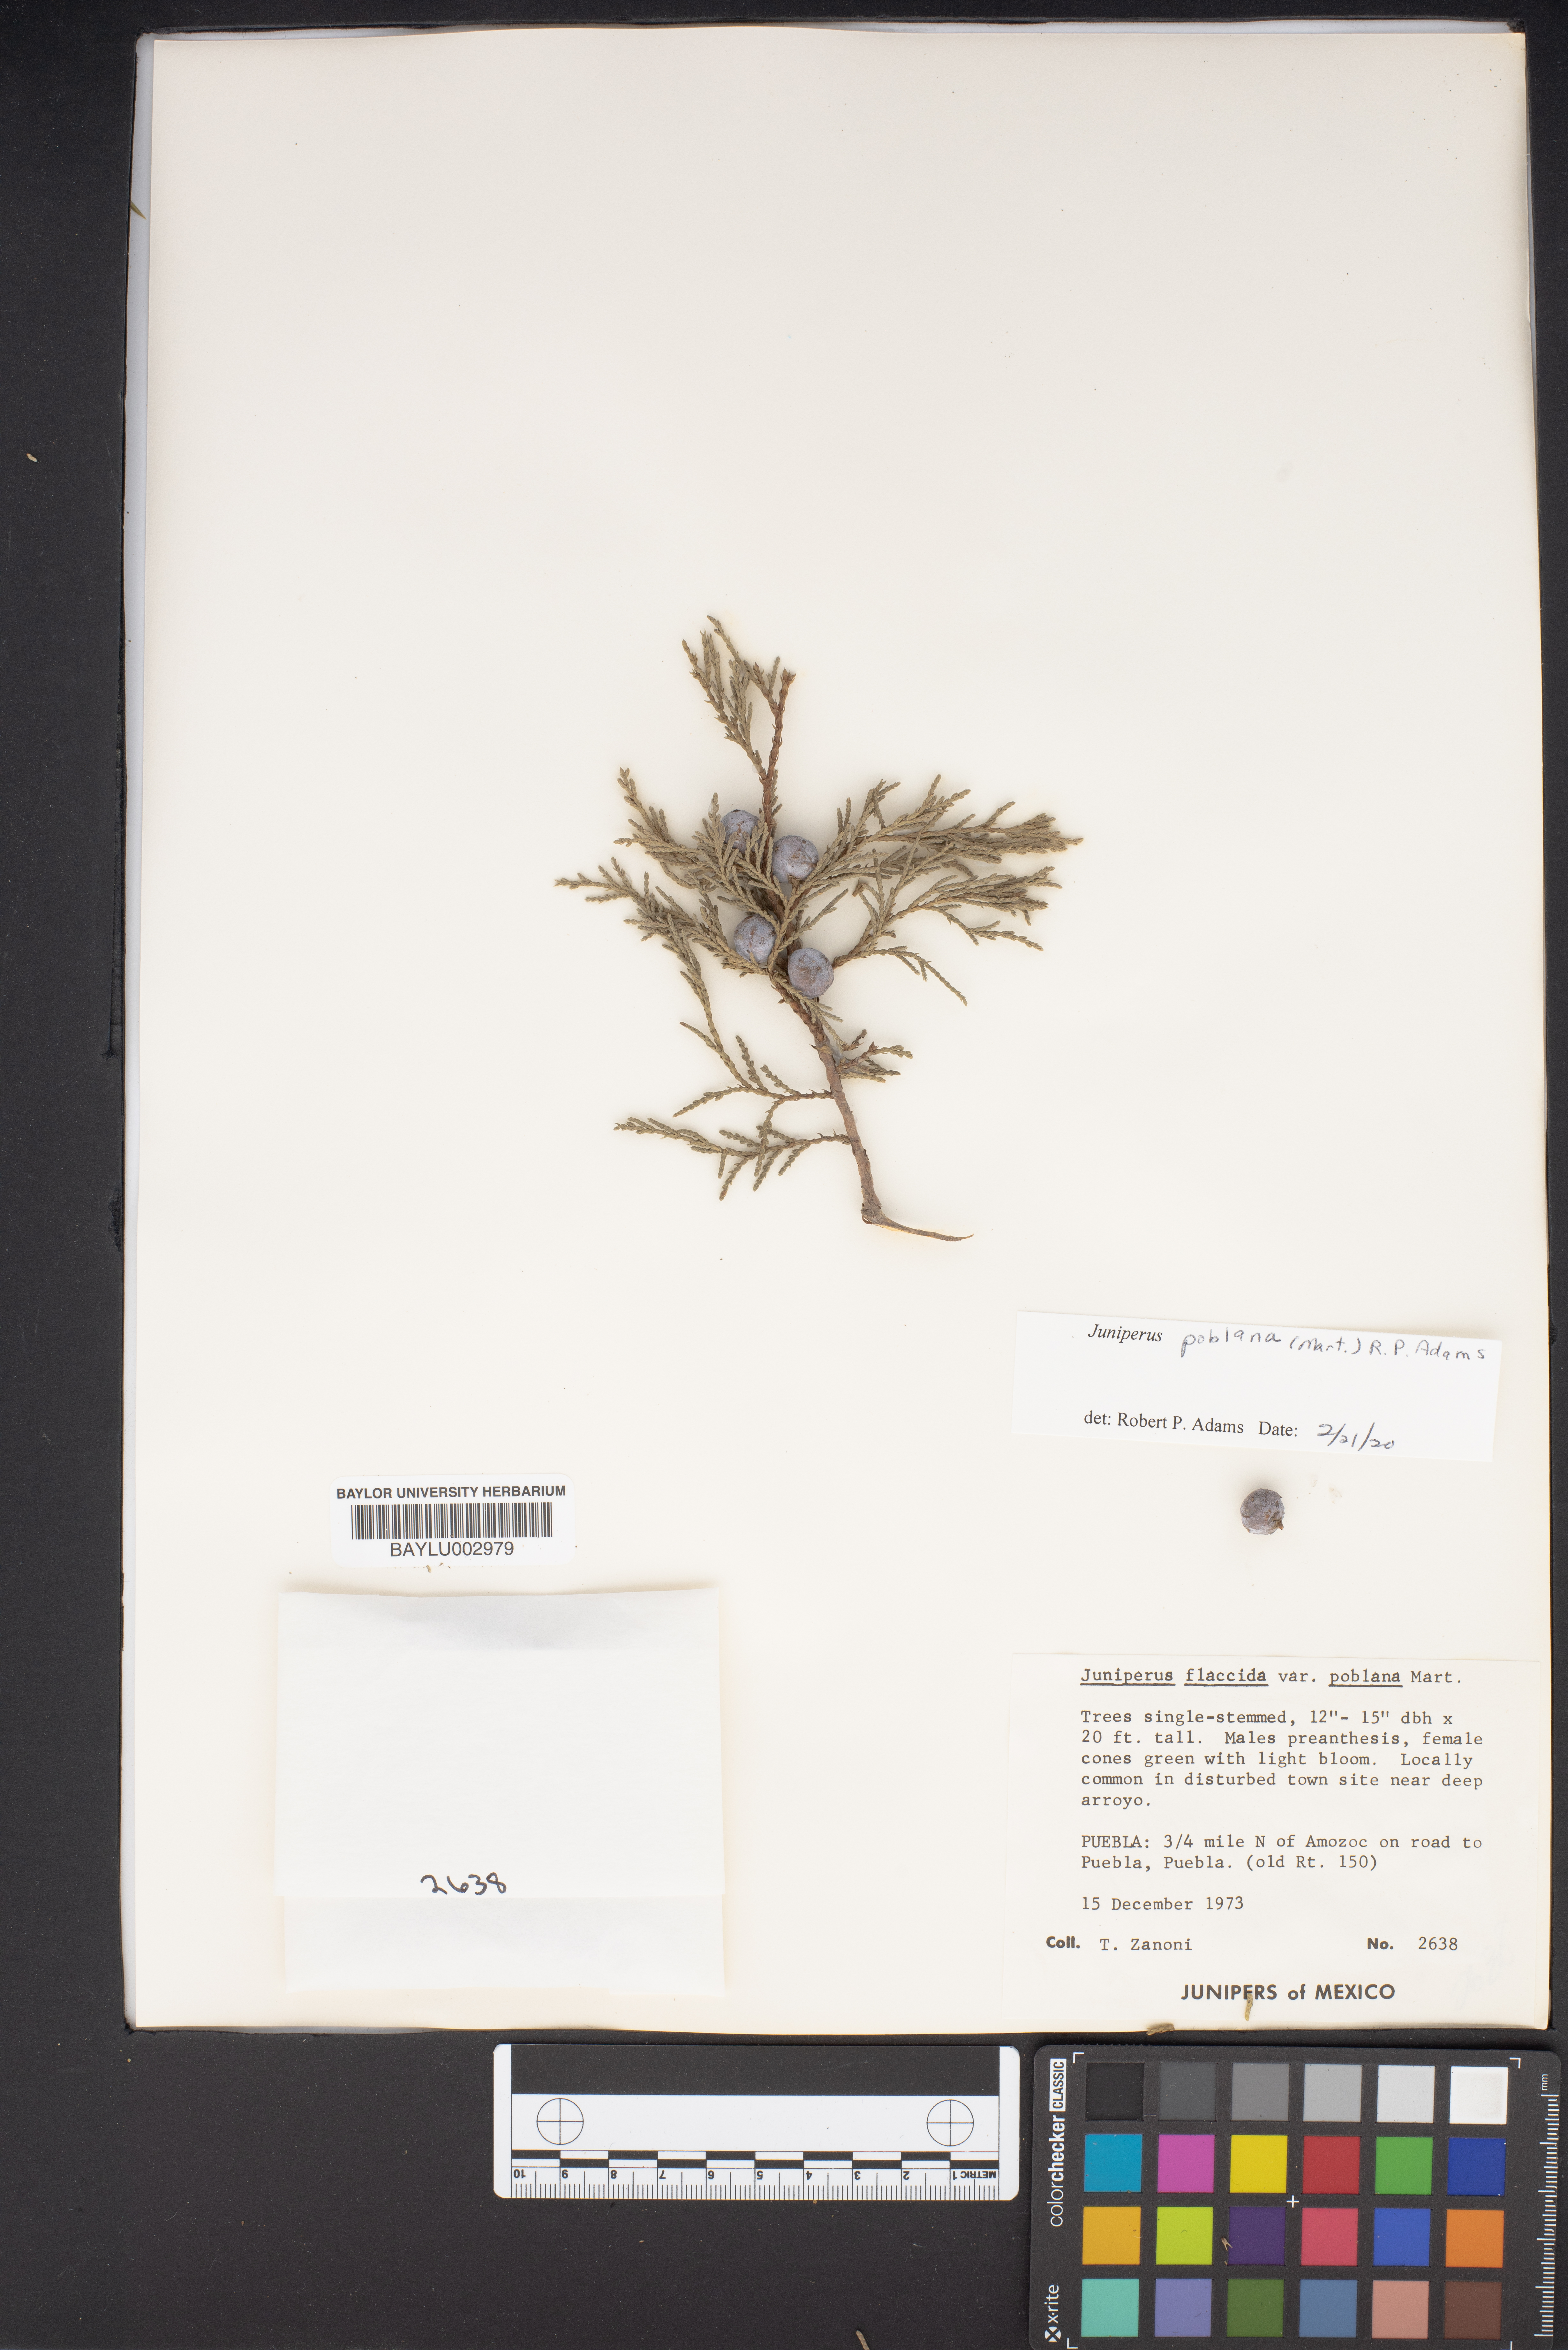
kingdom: Plantae
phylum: Tracheophyta
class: Pinopsida
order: Pinales
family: Cupressaceae
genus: Juniperus
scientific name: Juniperus flaccida
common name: Drooping juniper
